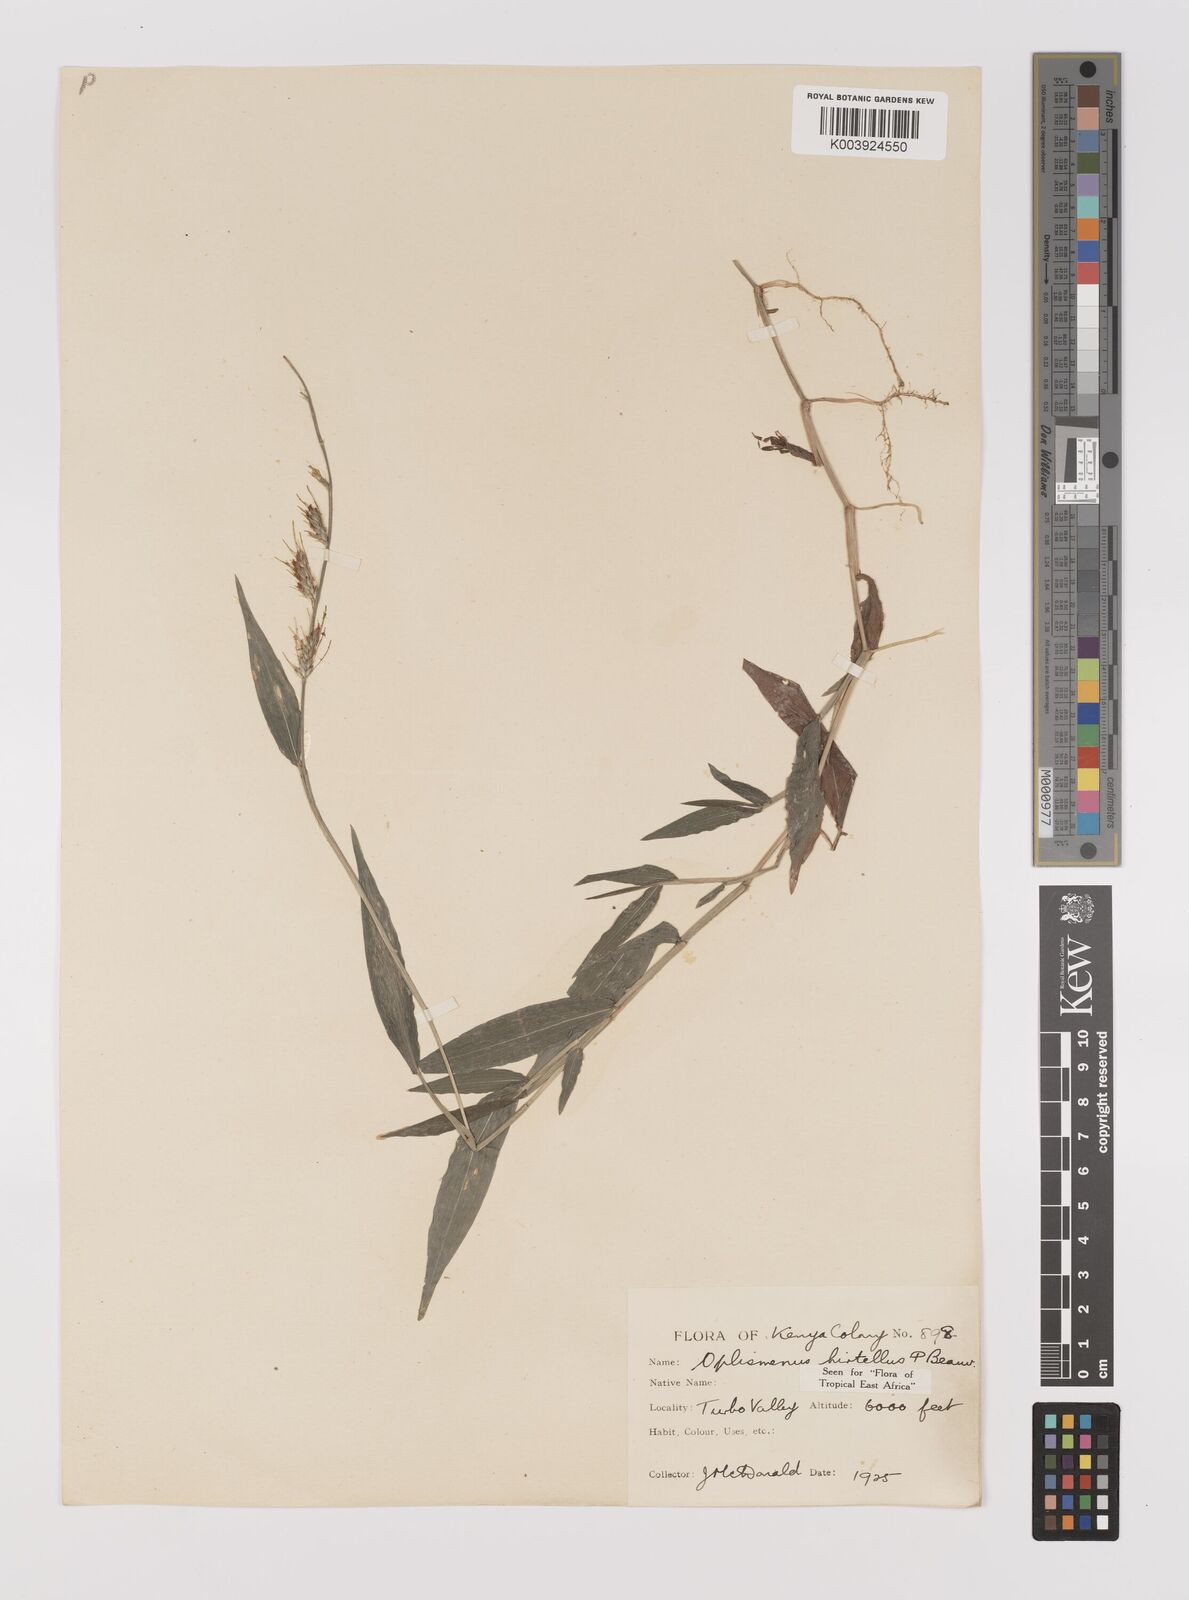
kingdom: Plantae
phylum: Tracheophyta
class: Liliopsida
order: Poales
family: Poaceae
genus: Oplismenus
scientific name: Oplismenus hirtellus
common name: Basketgrass
